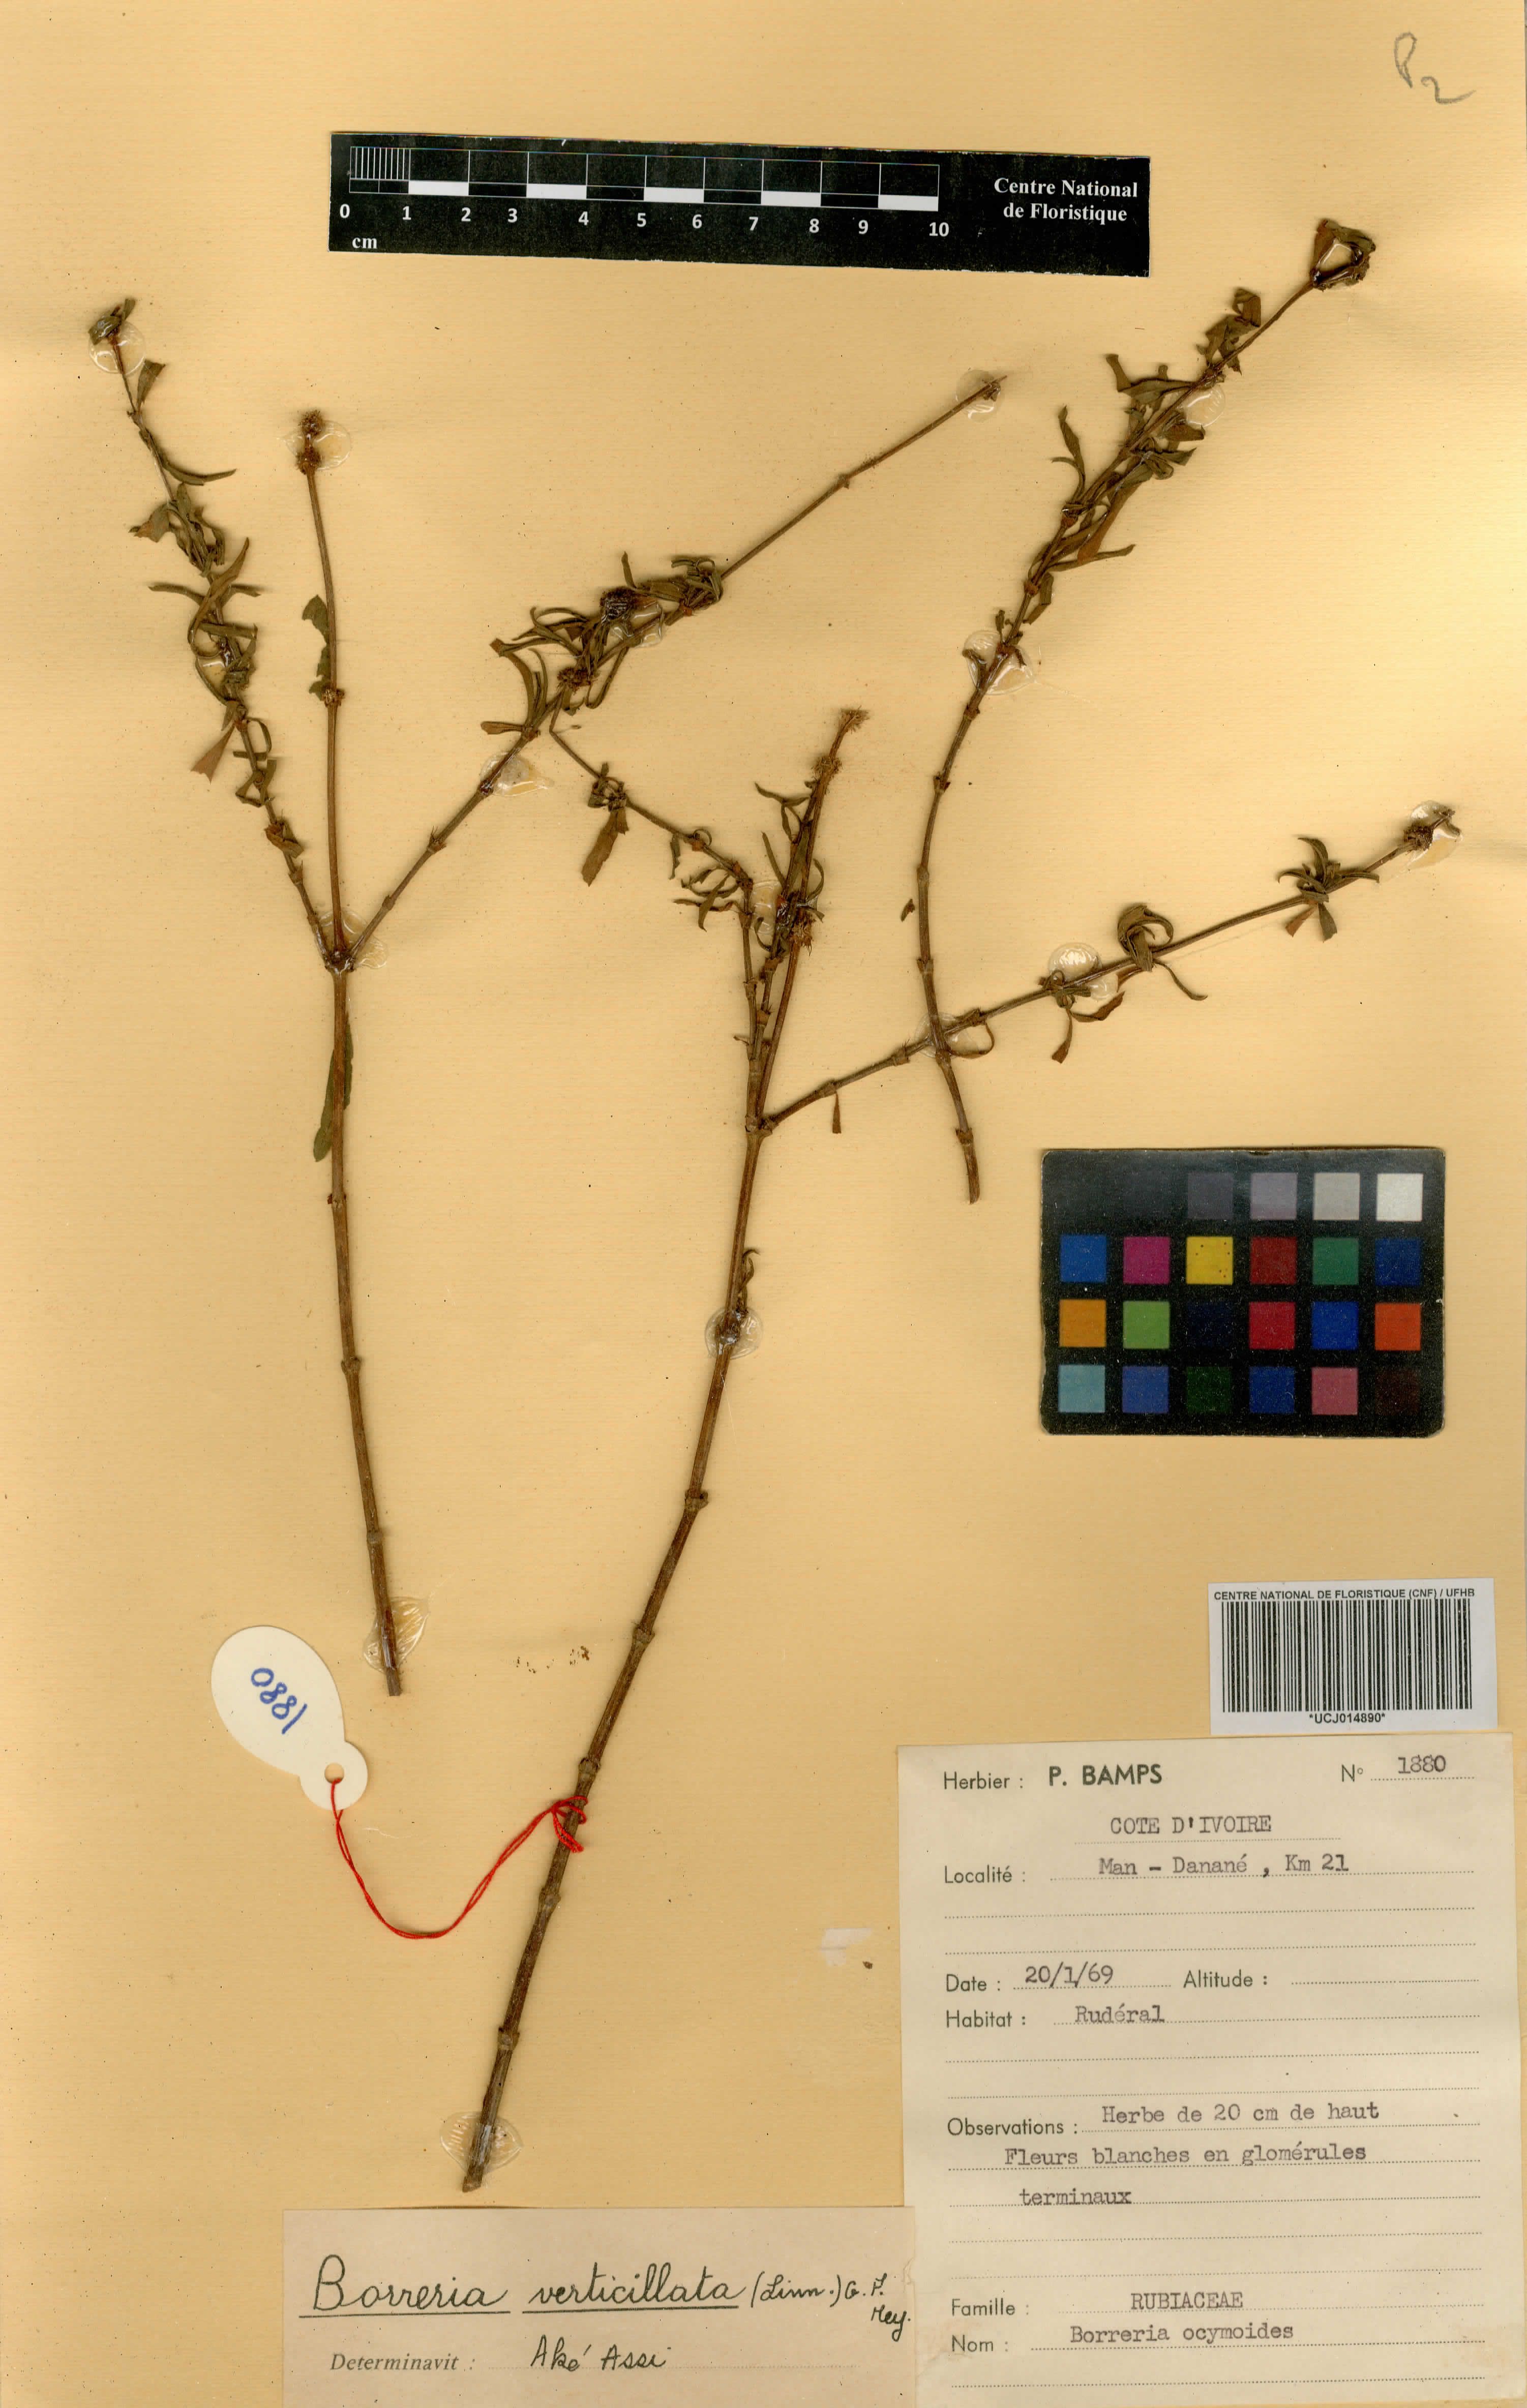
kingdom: Plantae
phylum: Tracheophyta
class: Magnoliopsida
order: Gentianales
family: Rubiaceae
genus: Spermacoce
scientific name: Spermacoce ocymoides
